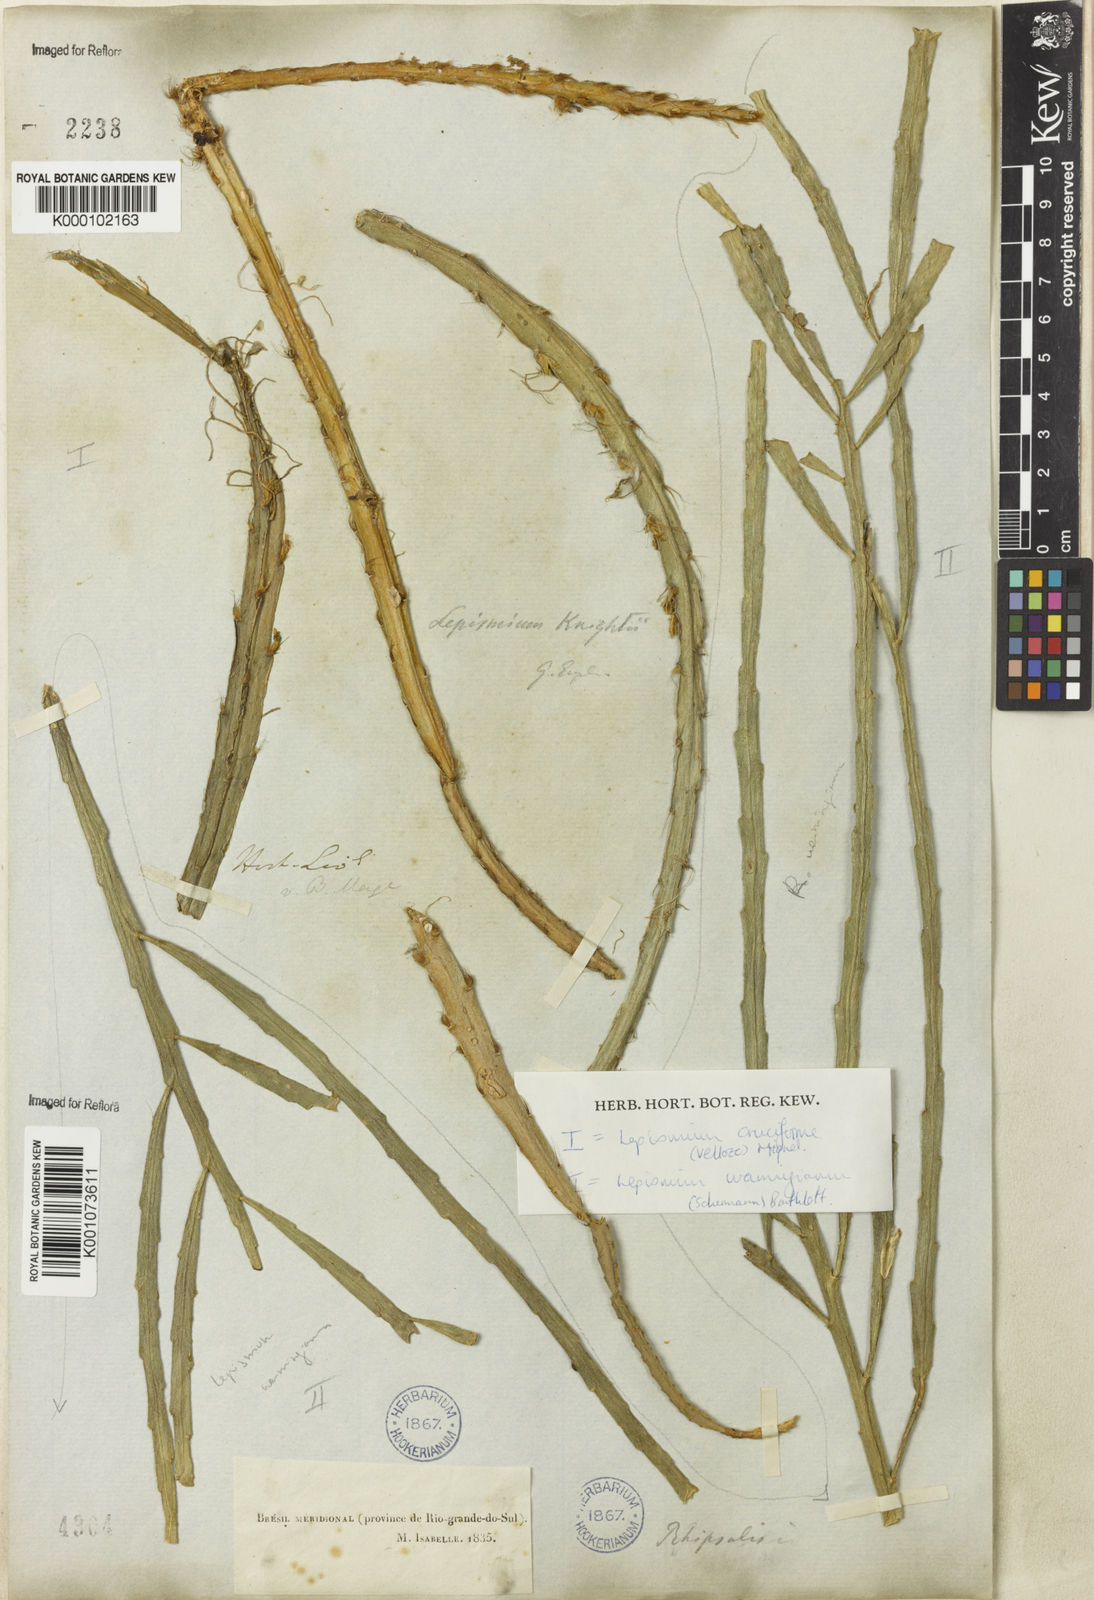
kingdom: Plantae
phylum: Tracheophyta
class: Magnoliopsida
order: Caryophyllales
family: Cactaceae
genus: Lepismium
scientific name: Lepismium cruciforme
